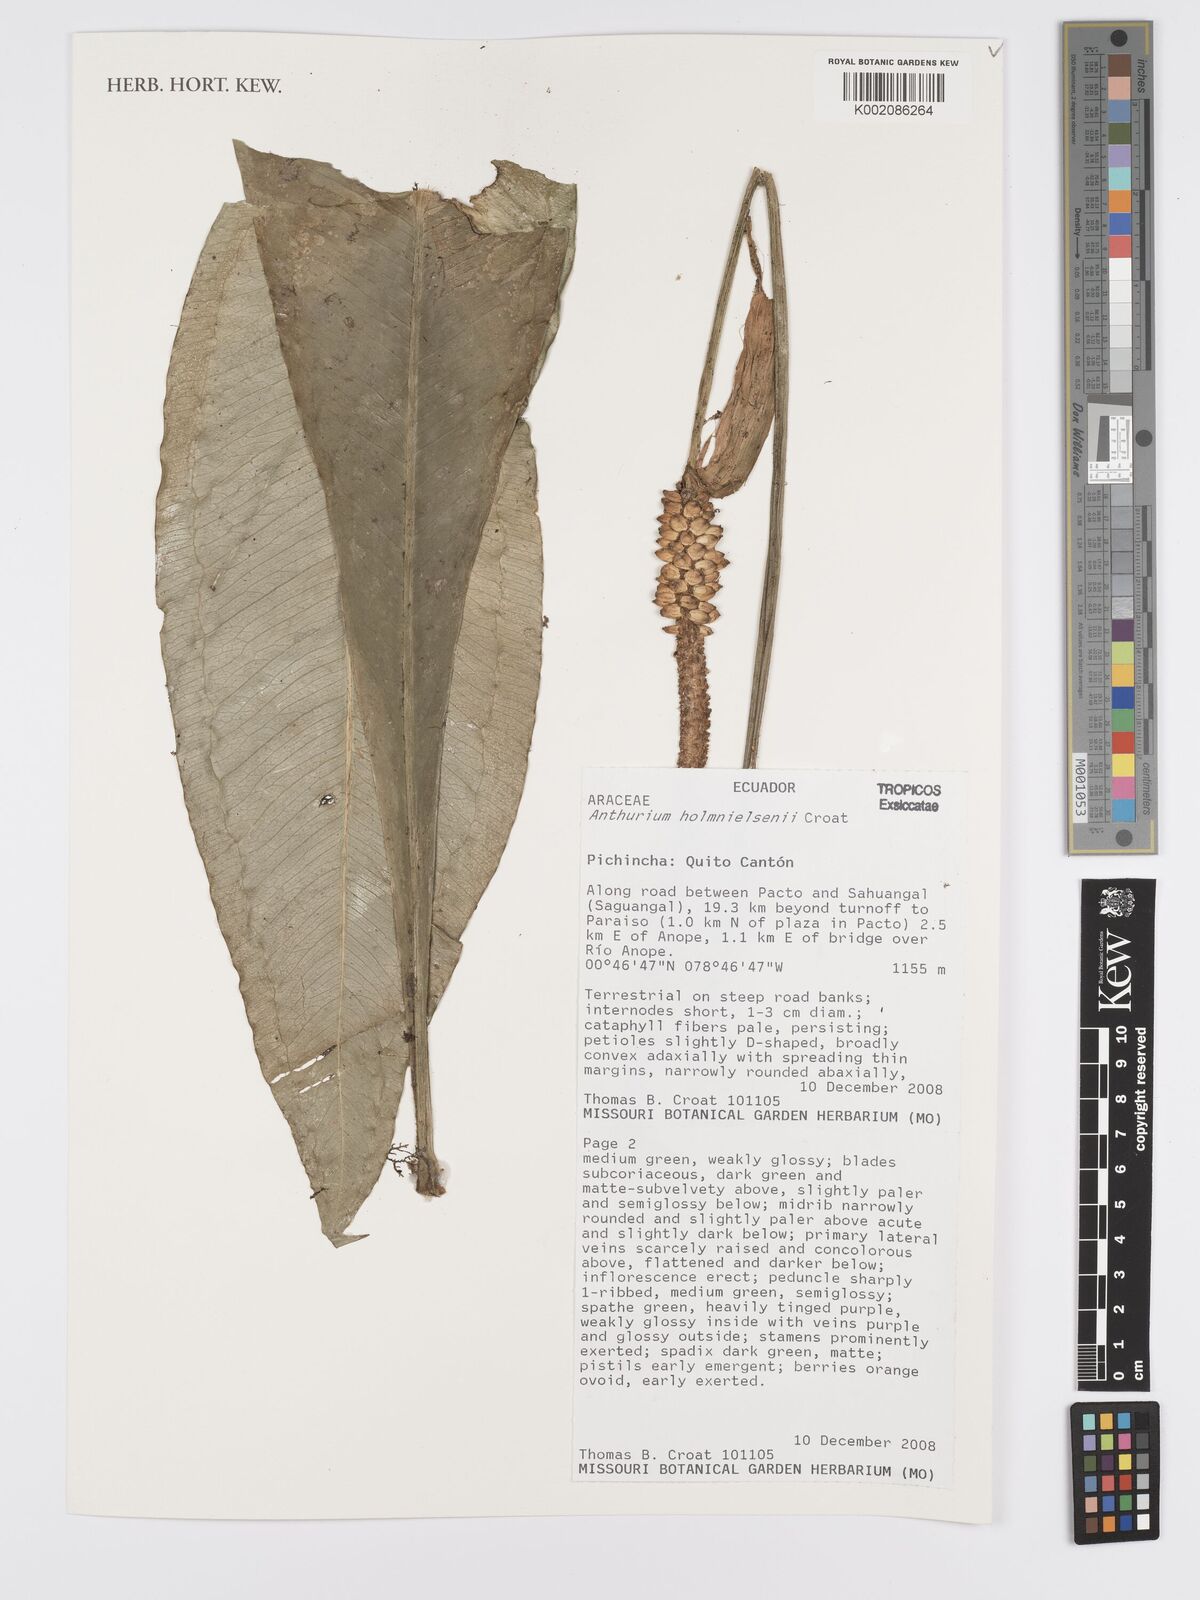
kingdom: Plantae
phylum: Tracheophyta
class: Liliopsida
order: Alismatales
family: Araceae
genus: Anthurium
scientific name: Anthurium holm-nielsenii
